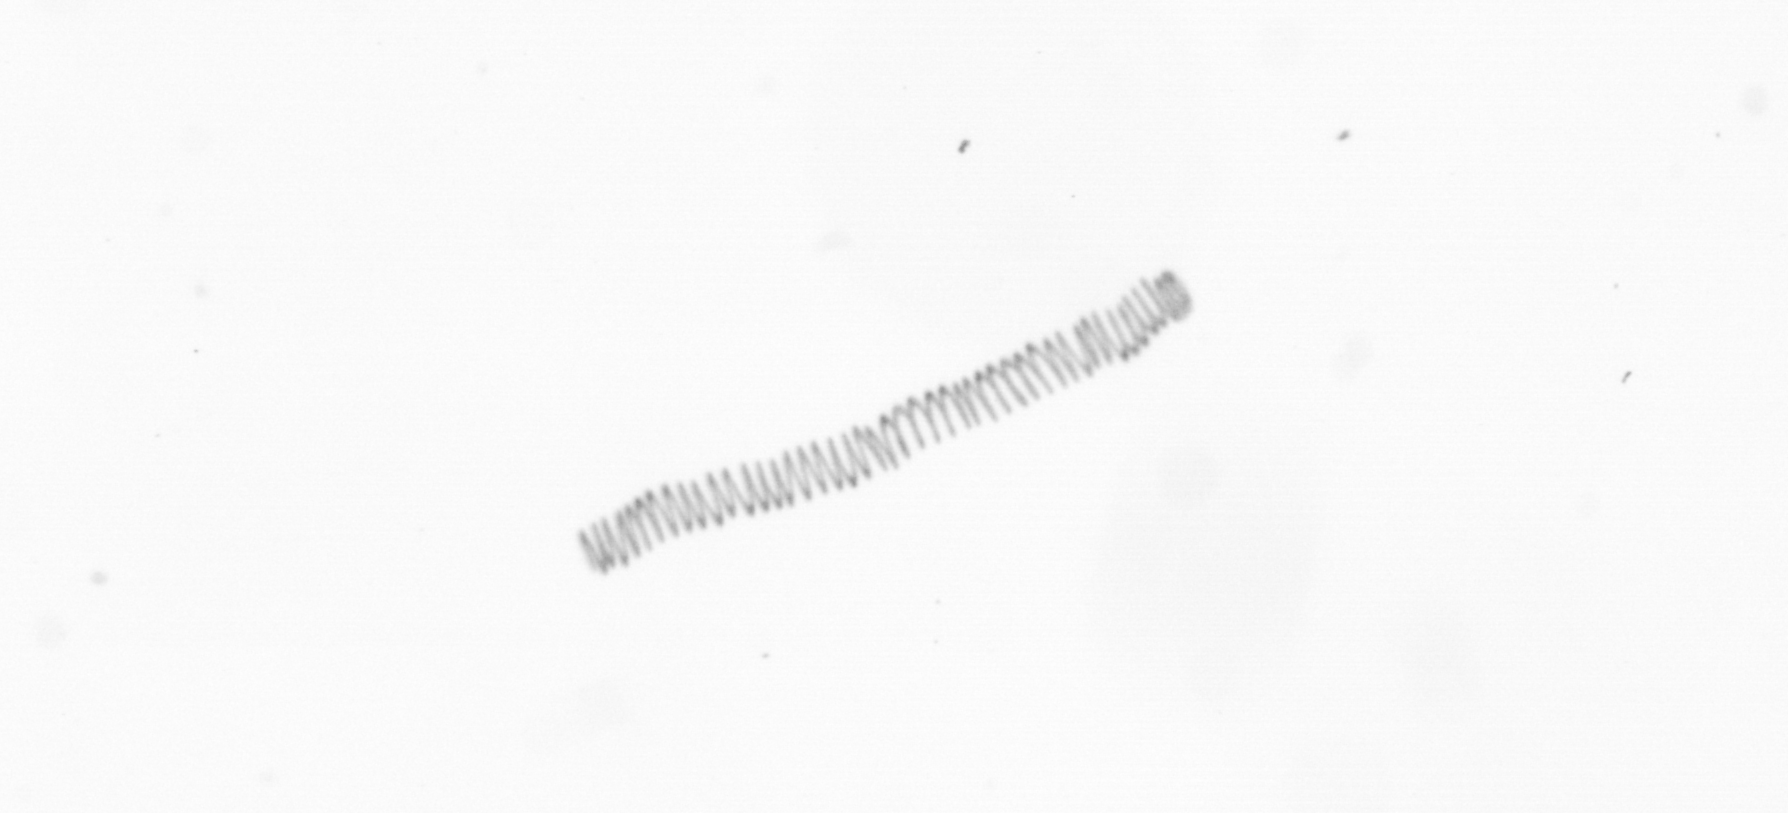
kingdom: Chromista
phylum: Ochrophyta
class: Bacillariophyceae
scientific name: Bacillariophyceae
